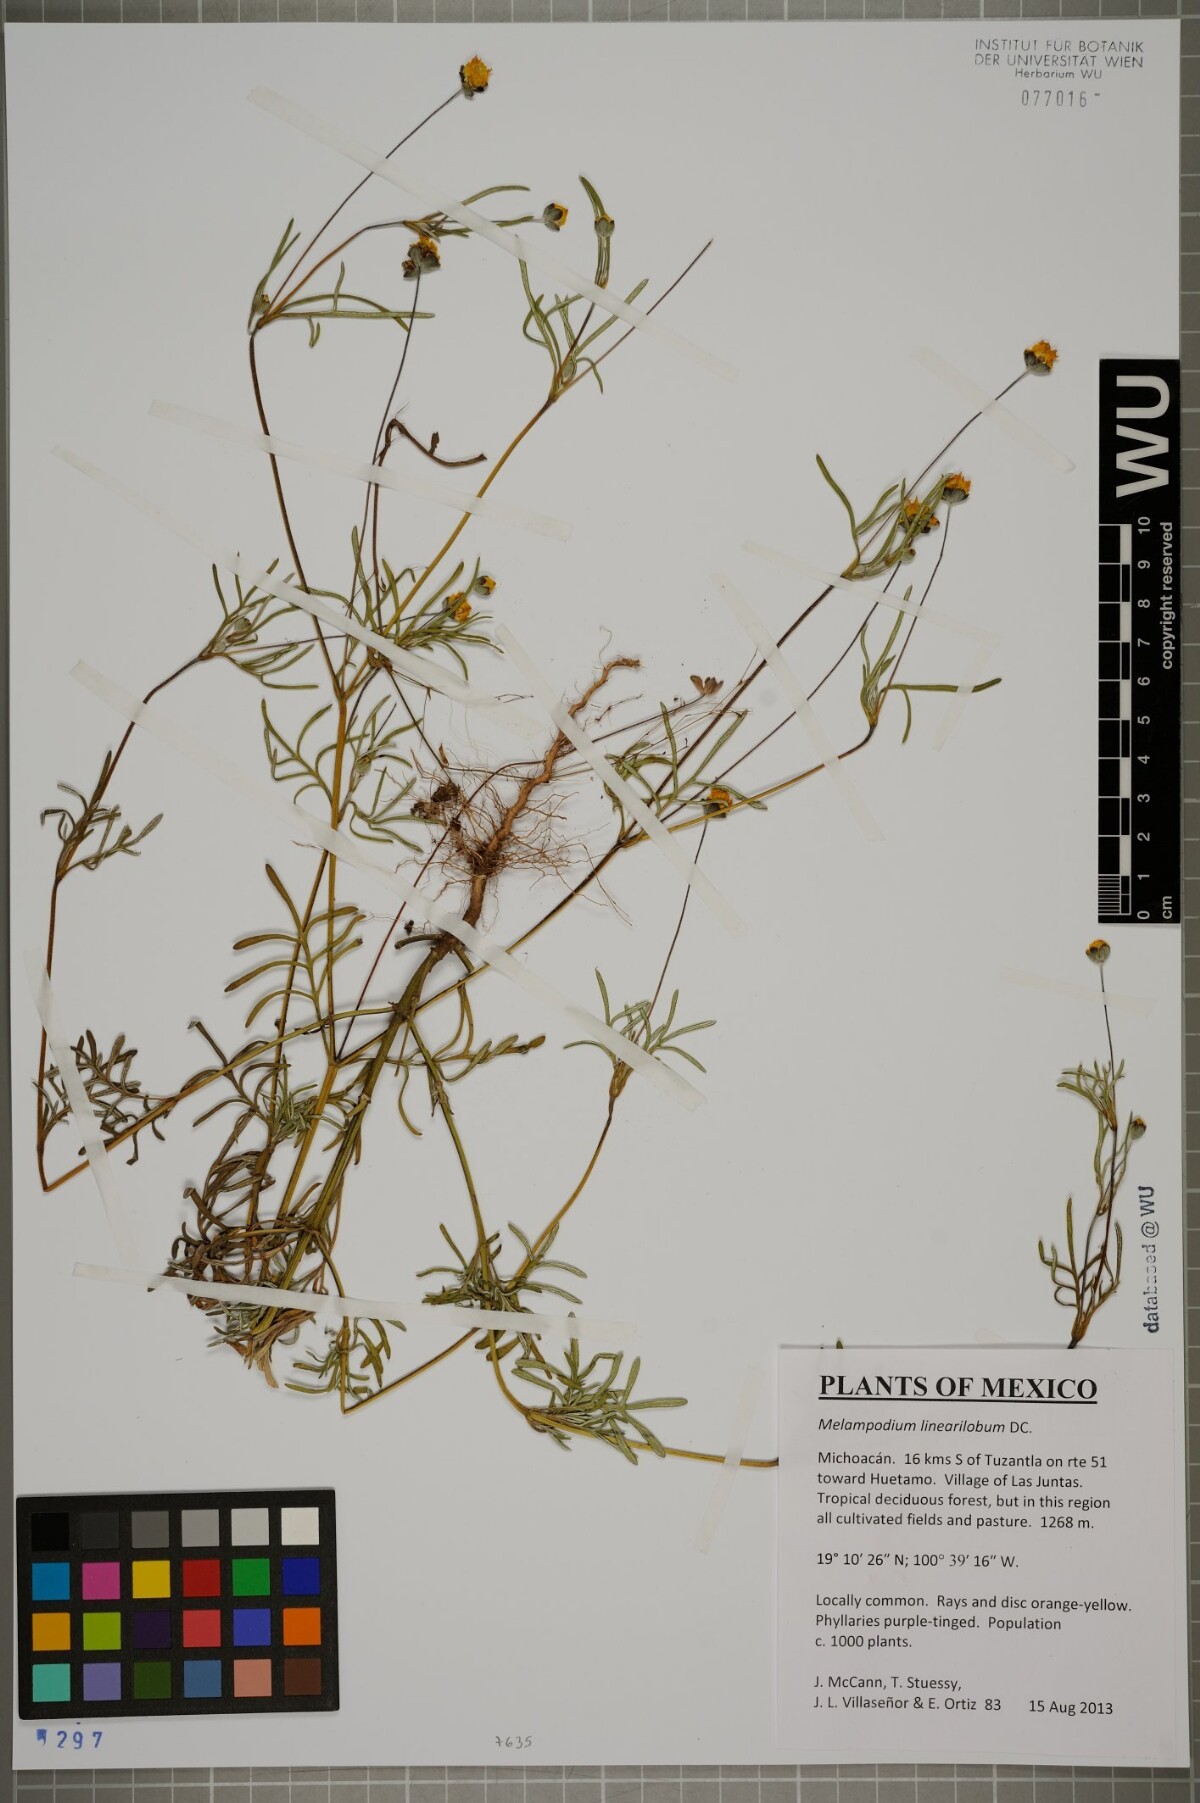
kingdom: Plantae
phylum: Tracheophyta
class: Magnoliopsida
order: Asterales
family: Asteraceae
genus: Melampodium
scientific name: Melampodium linearilobum
